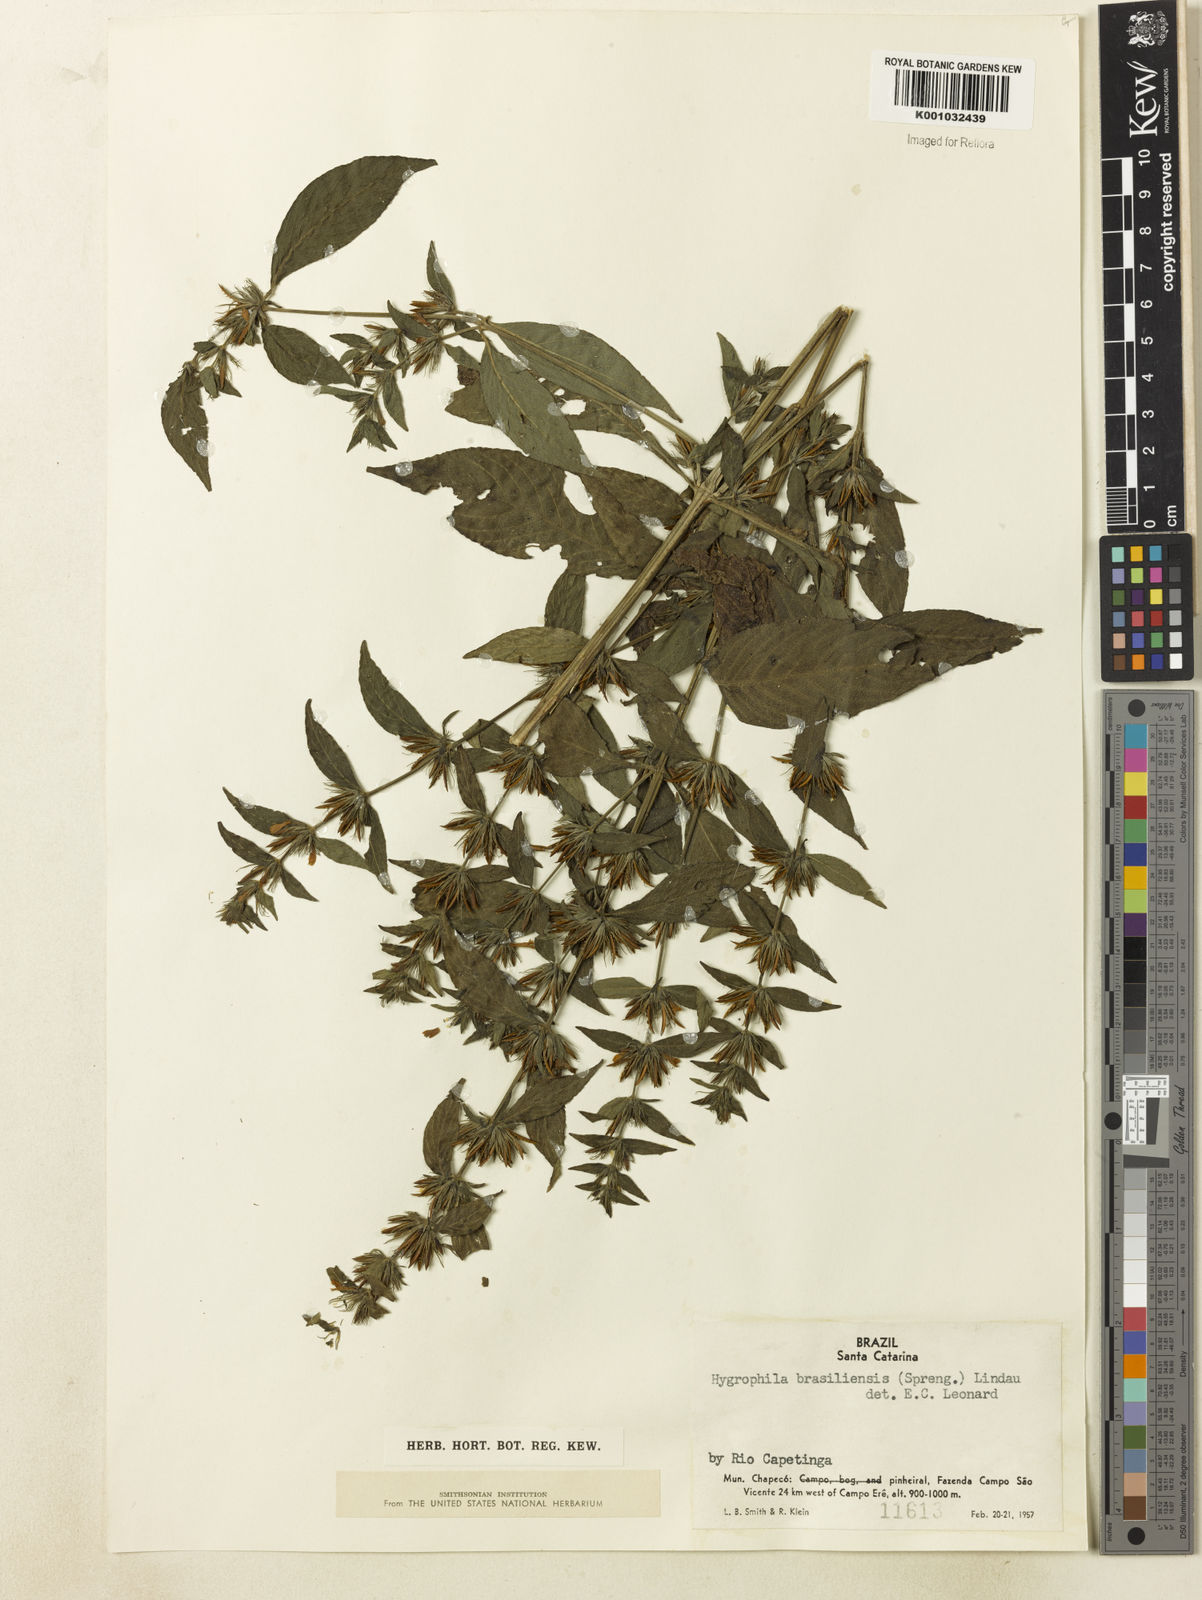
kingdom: Plantae
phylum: Tracheophyta
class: Magnoliopsida
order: Lamiales
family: Acanthaceae
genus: Hygrophila
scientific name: Hygrophila costata
